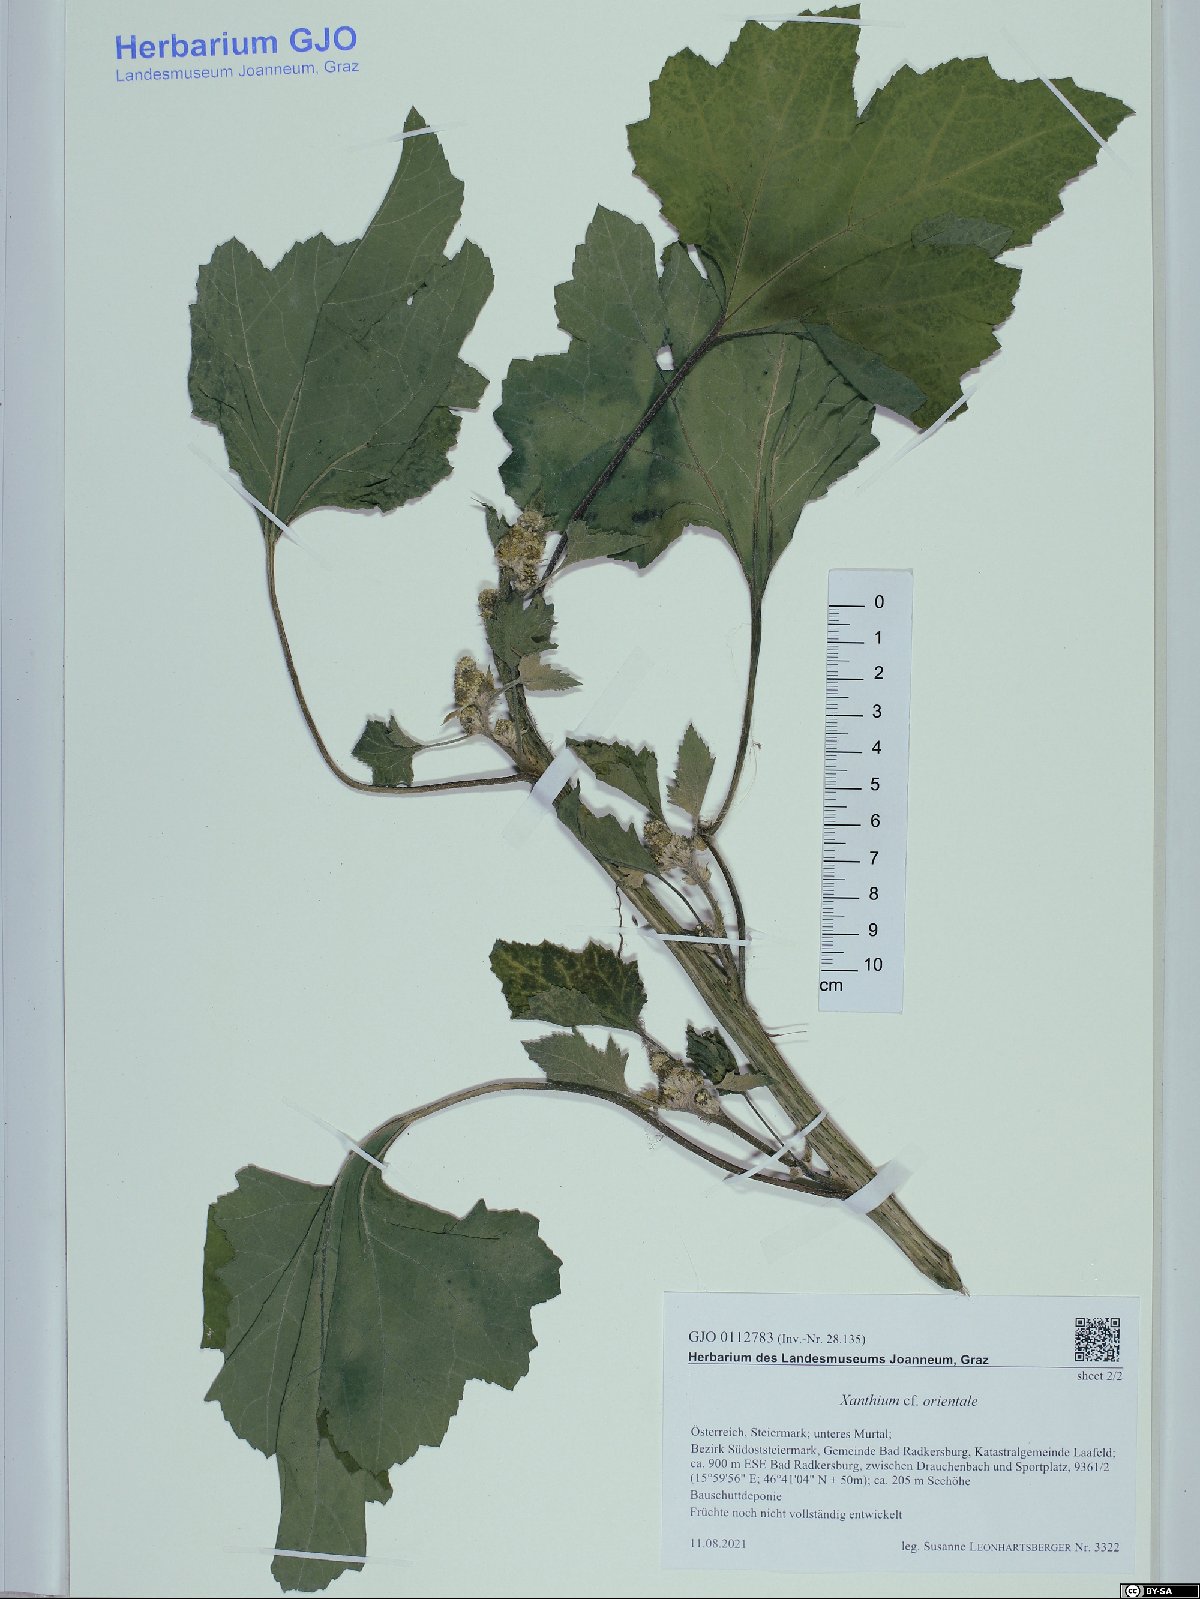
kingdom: Plantae
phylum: Tracheophyta
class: Magnoliopsida
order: Asterales
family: Asteraceae
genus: Xanthium
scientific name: Xanthium orientale
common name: Californian burr
